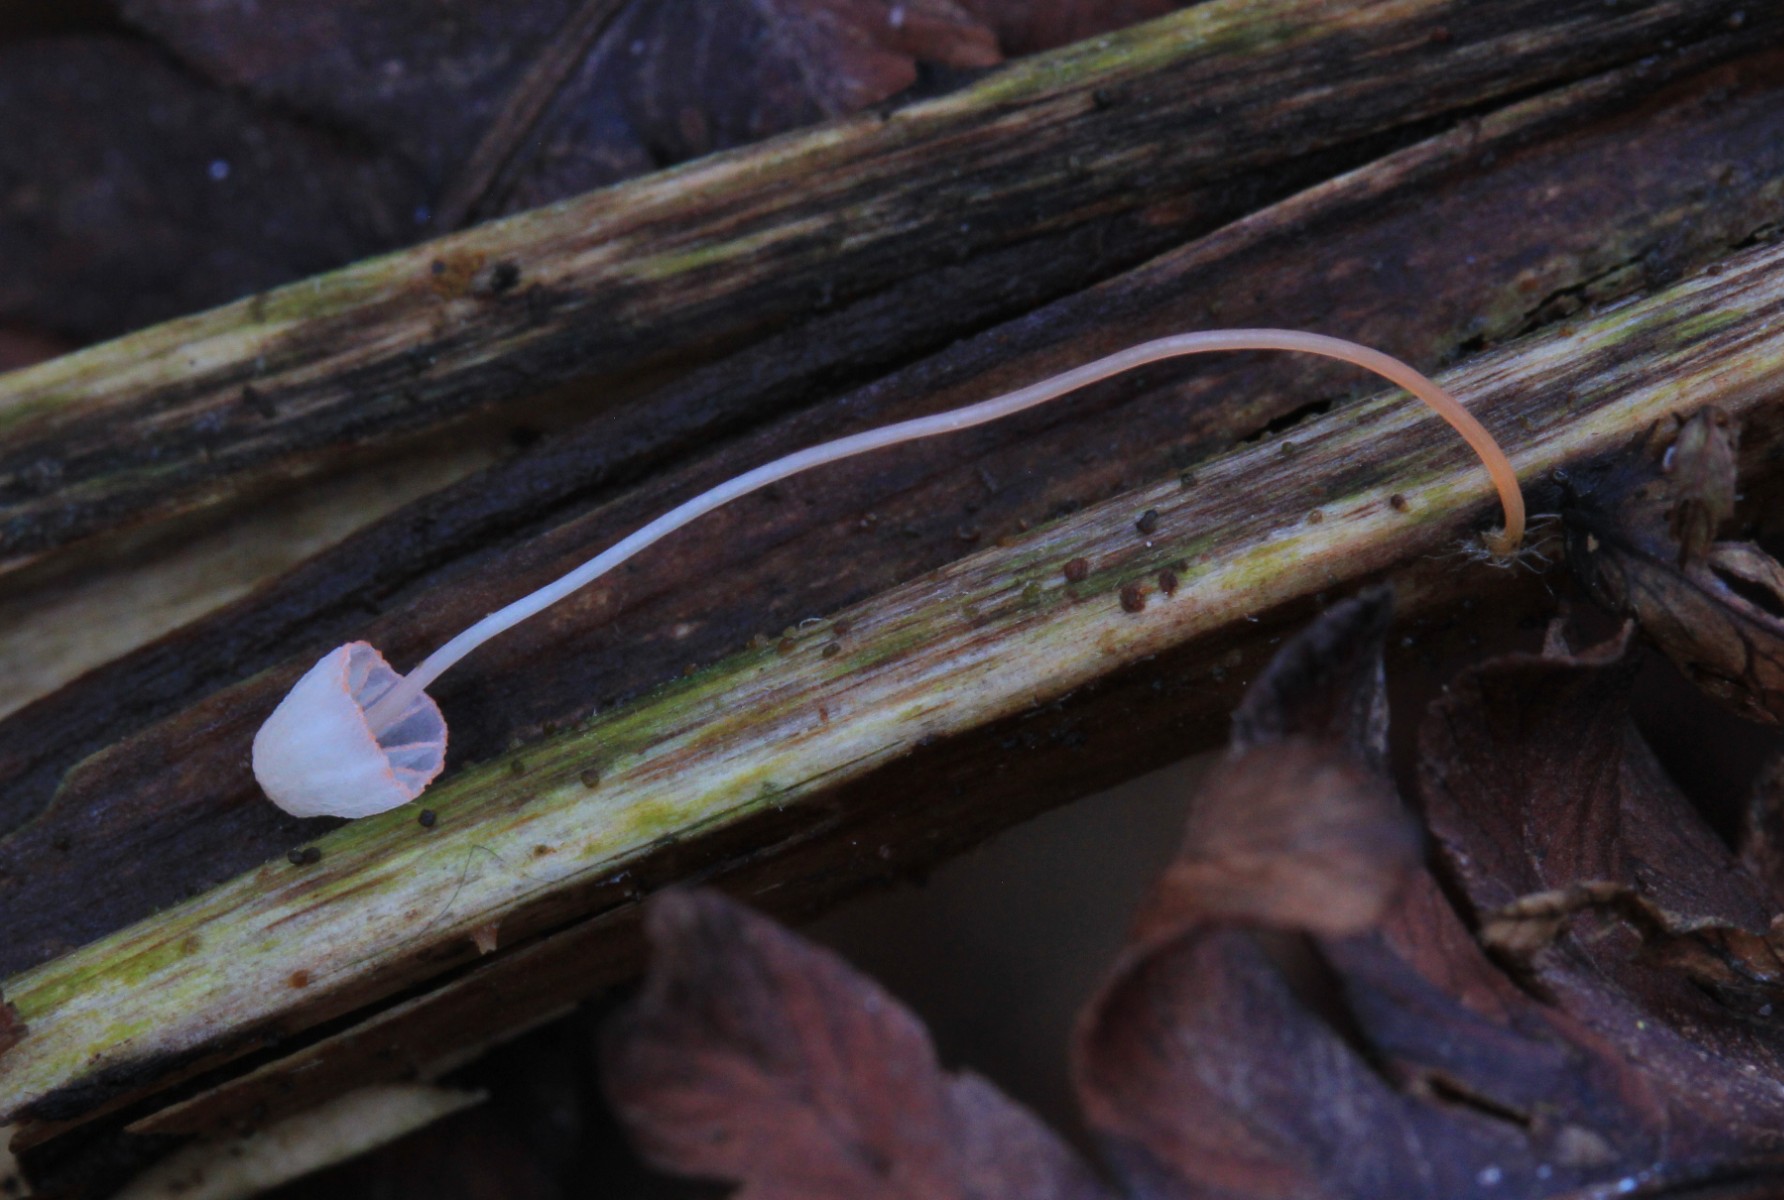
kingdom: Fungi
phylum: Basidiomycota
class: Agaricomycetes
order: Agaricales
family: Mycenaceae
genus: Mycena
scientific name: Mycena pterigena
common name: bregne-huesvamp
